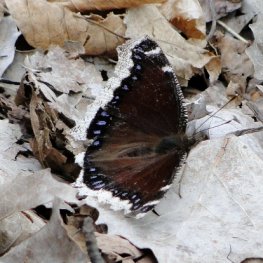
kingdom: Animalia
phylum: Arthropoda
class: Insecta
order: Lepidoptera
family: Nymphalidae
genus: Nymphalis
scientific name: Nymphalis antiopa
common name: Mourning Cloak
